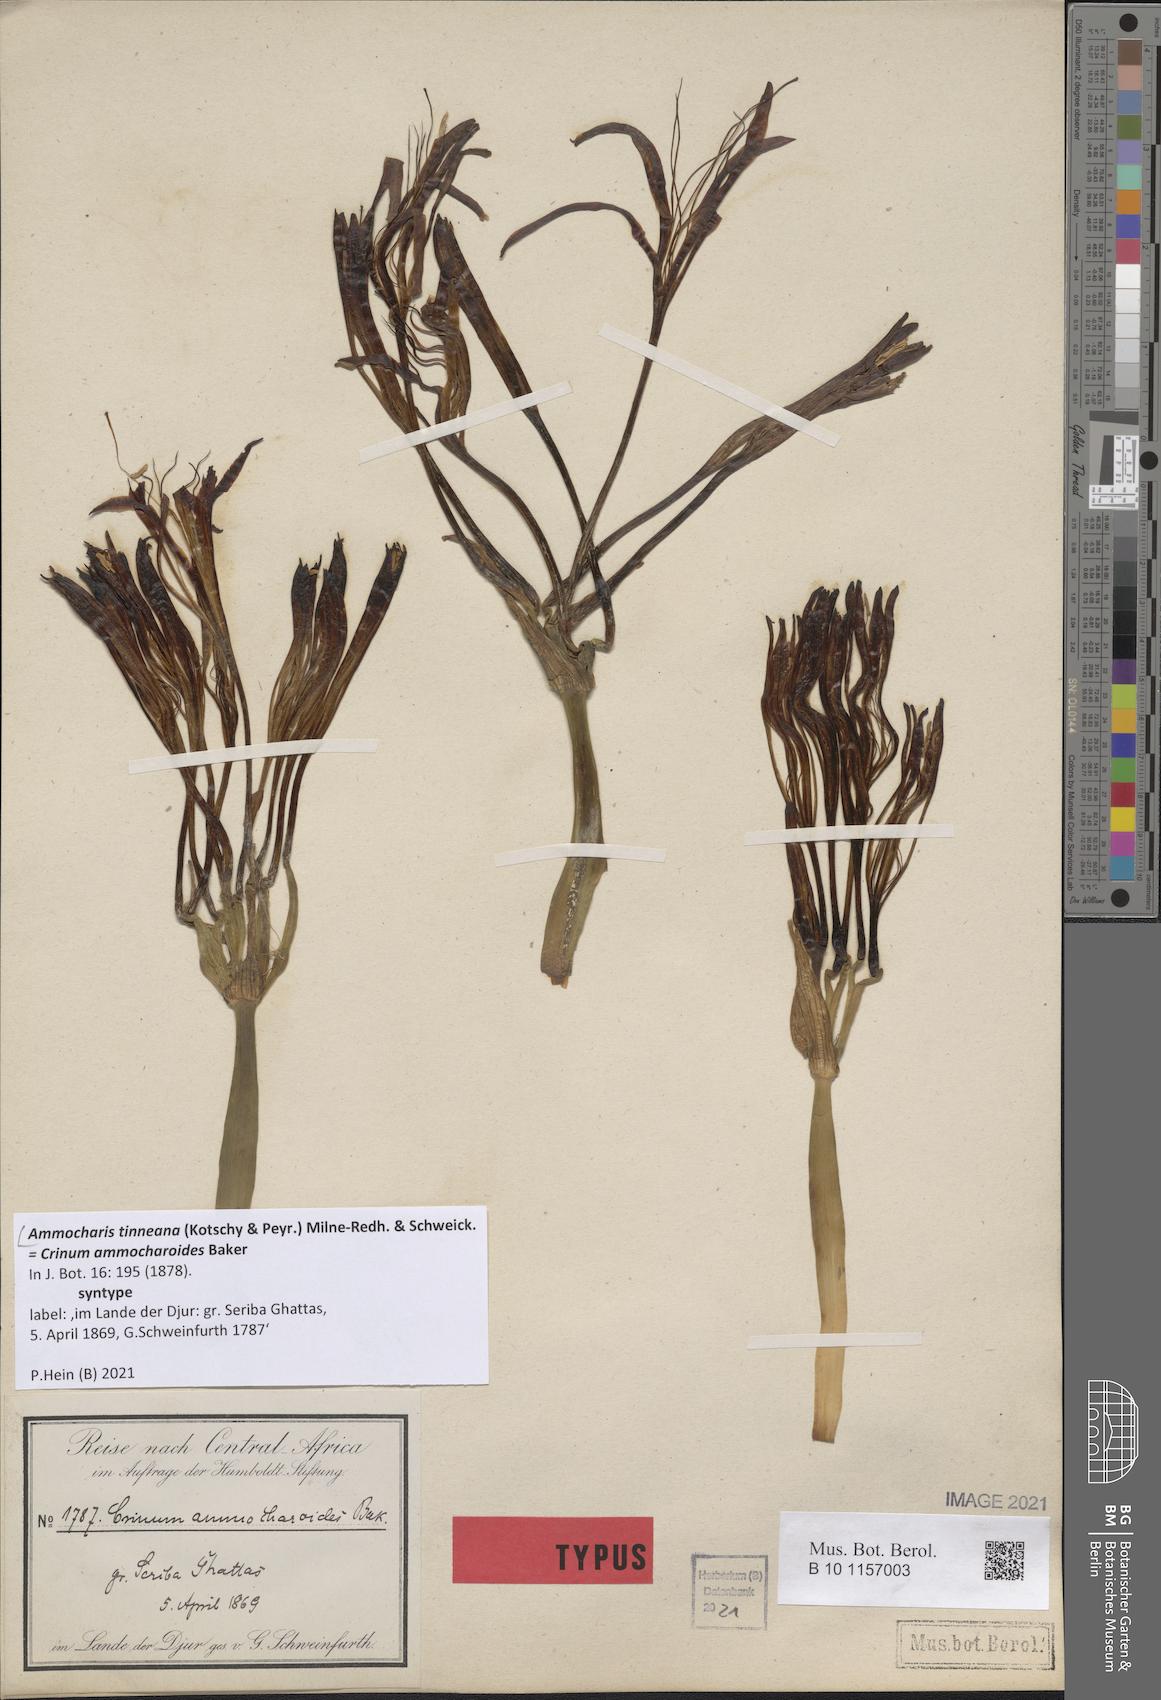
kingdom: Plantae
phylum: Tracheophyta
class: Liliopsida
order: Asparagales
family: Amaryllidaceae
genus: Ammocharis
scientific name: Ammocharis tinneana
